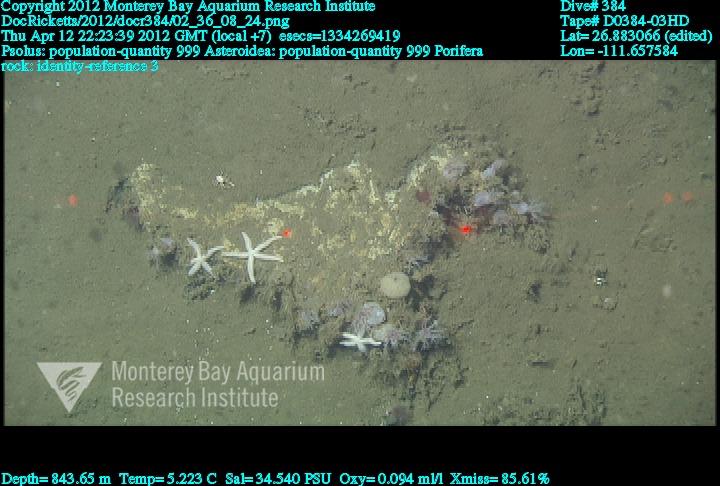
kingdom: Animalia
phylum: Porifera
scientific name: Porifera
